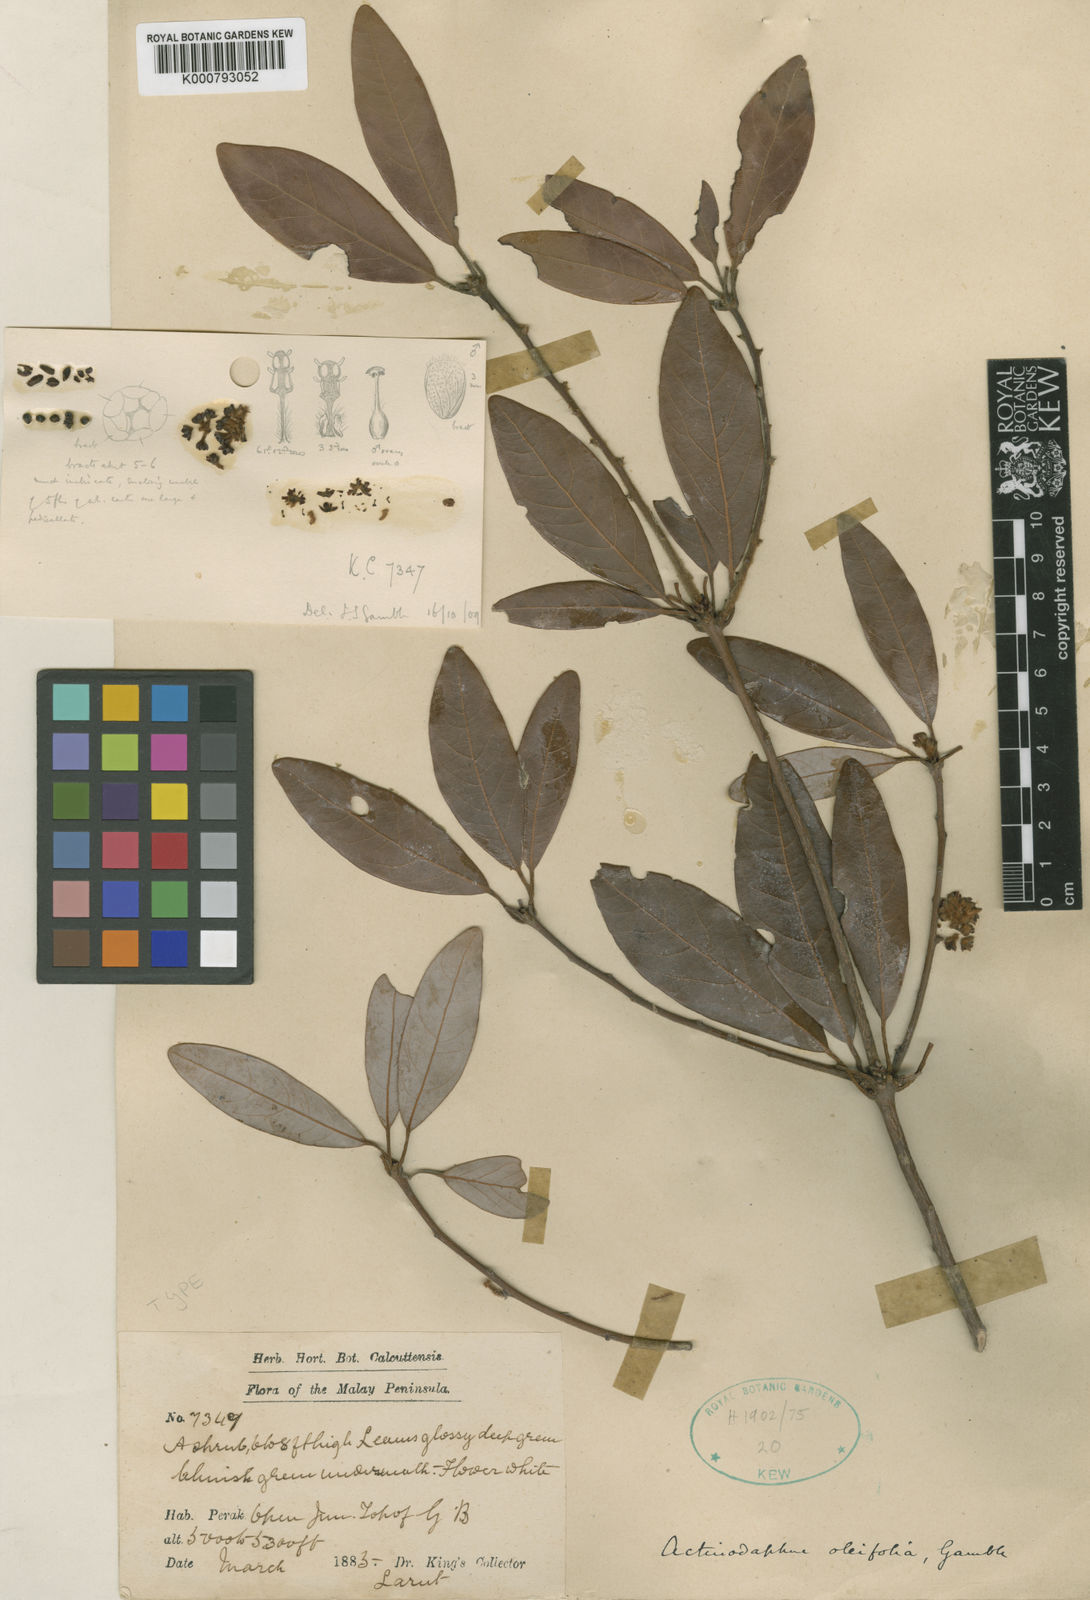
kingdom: Plantae
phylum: Tracheophyta
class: Magnoliopsida
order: Laurales
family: Lauraceae
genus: Actinodaphne
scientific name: Actinodaphne oleifolia
